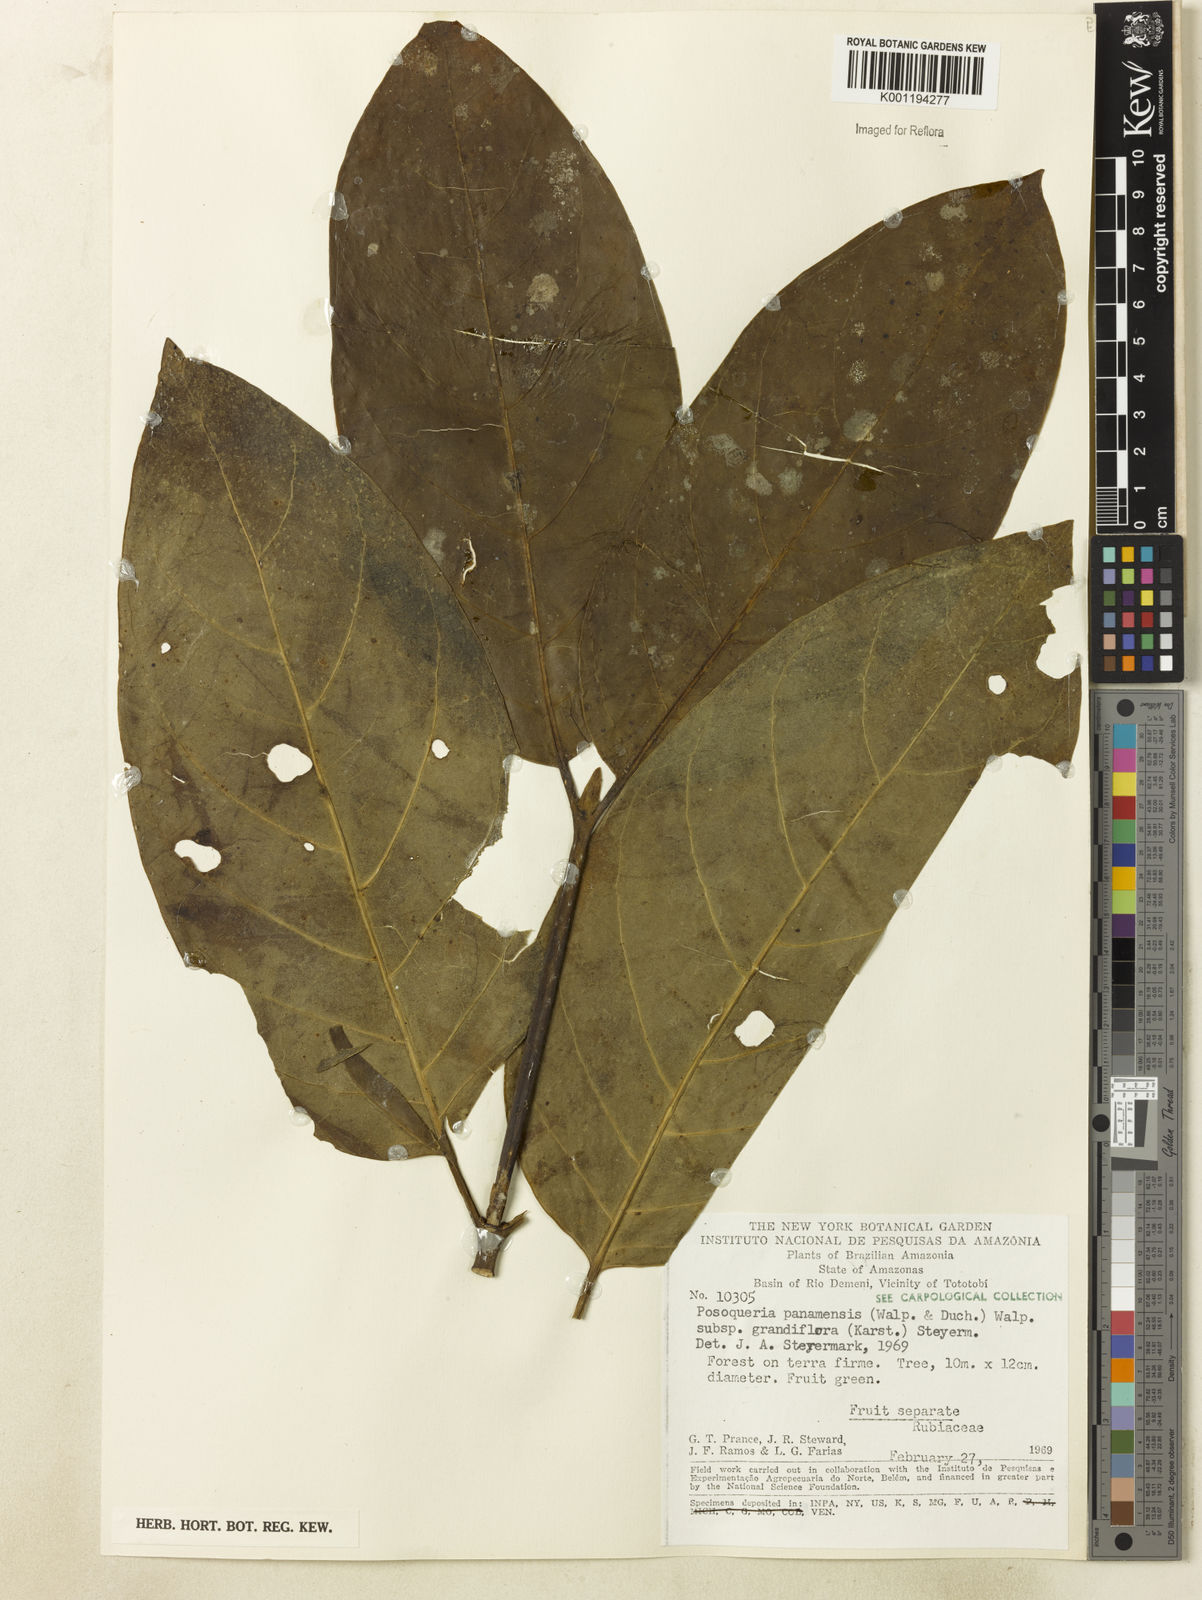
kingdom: Plantae
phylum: Tracheophyta
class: Magnoliopsida
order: Gentianales
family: Rubiaceae
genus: Posoqueria
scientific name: Posoqueria latifolia
